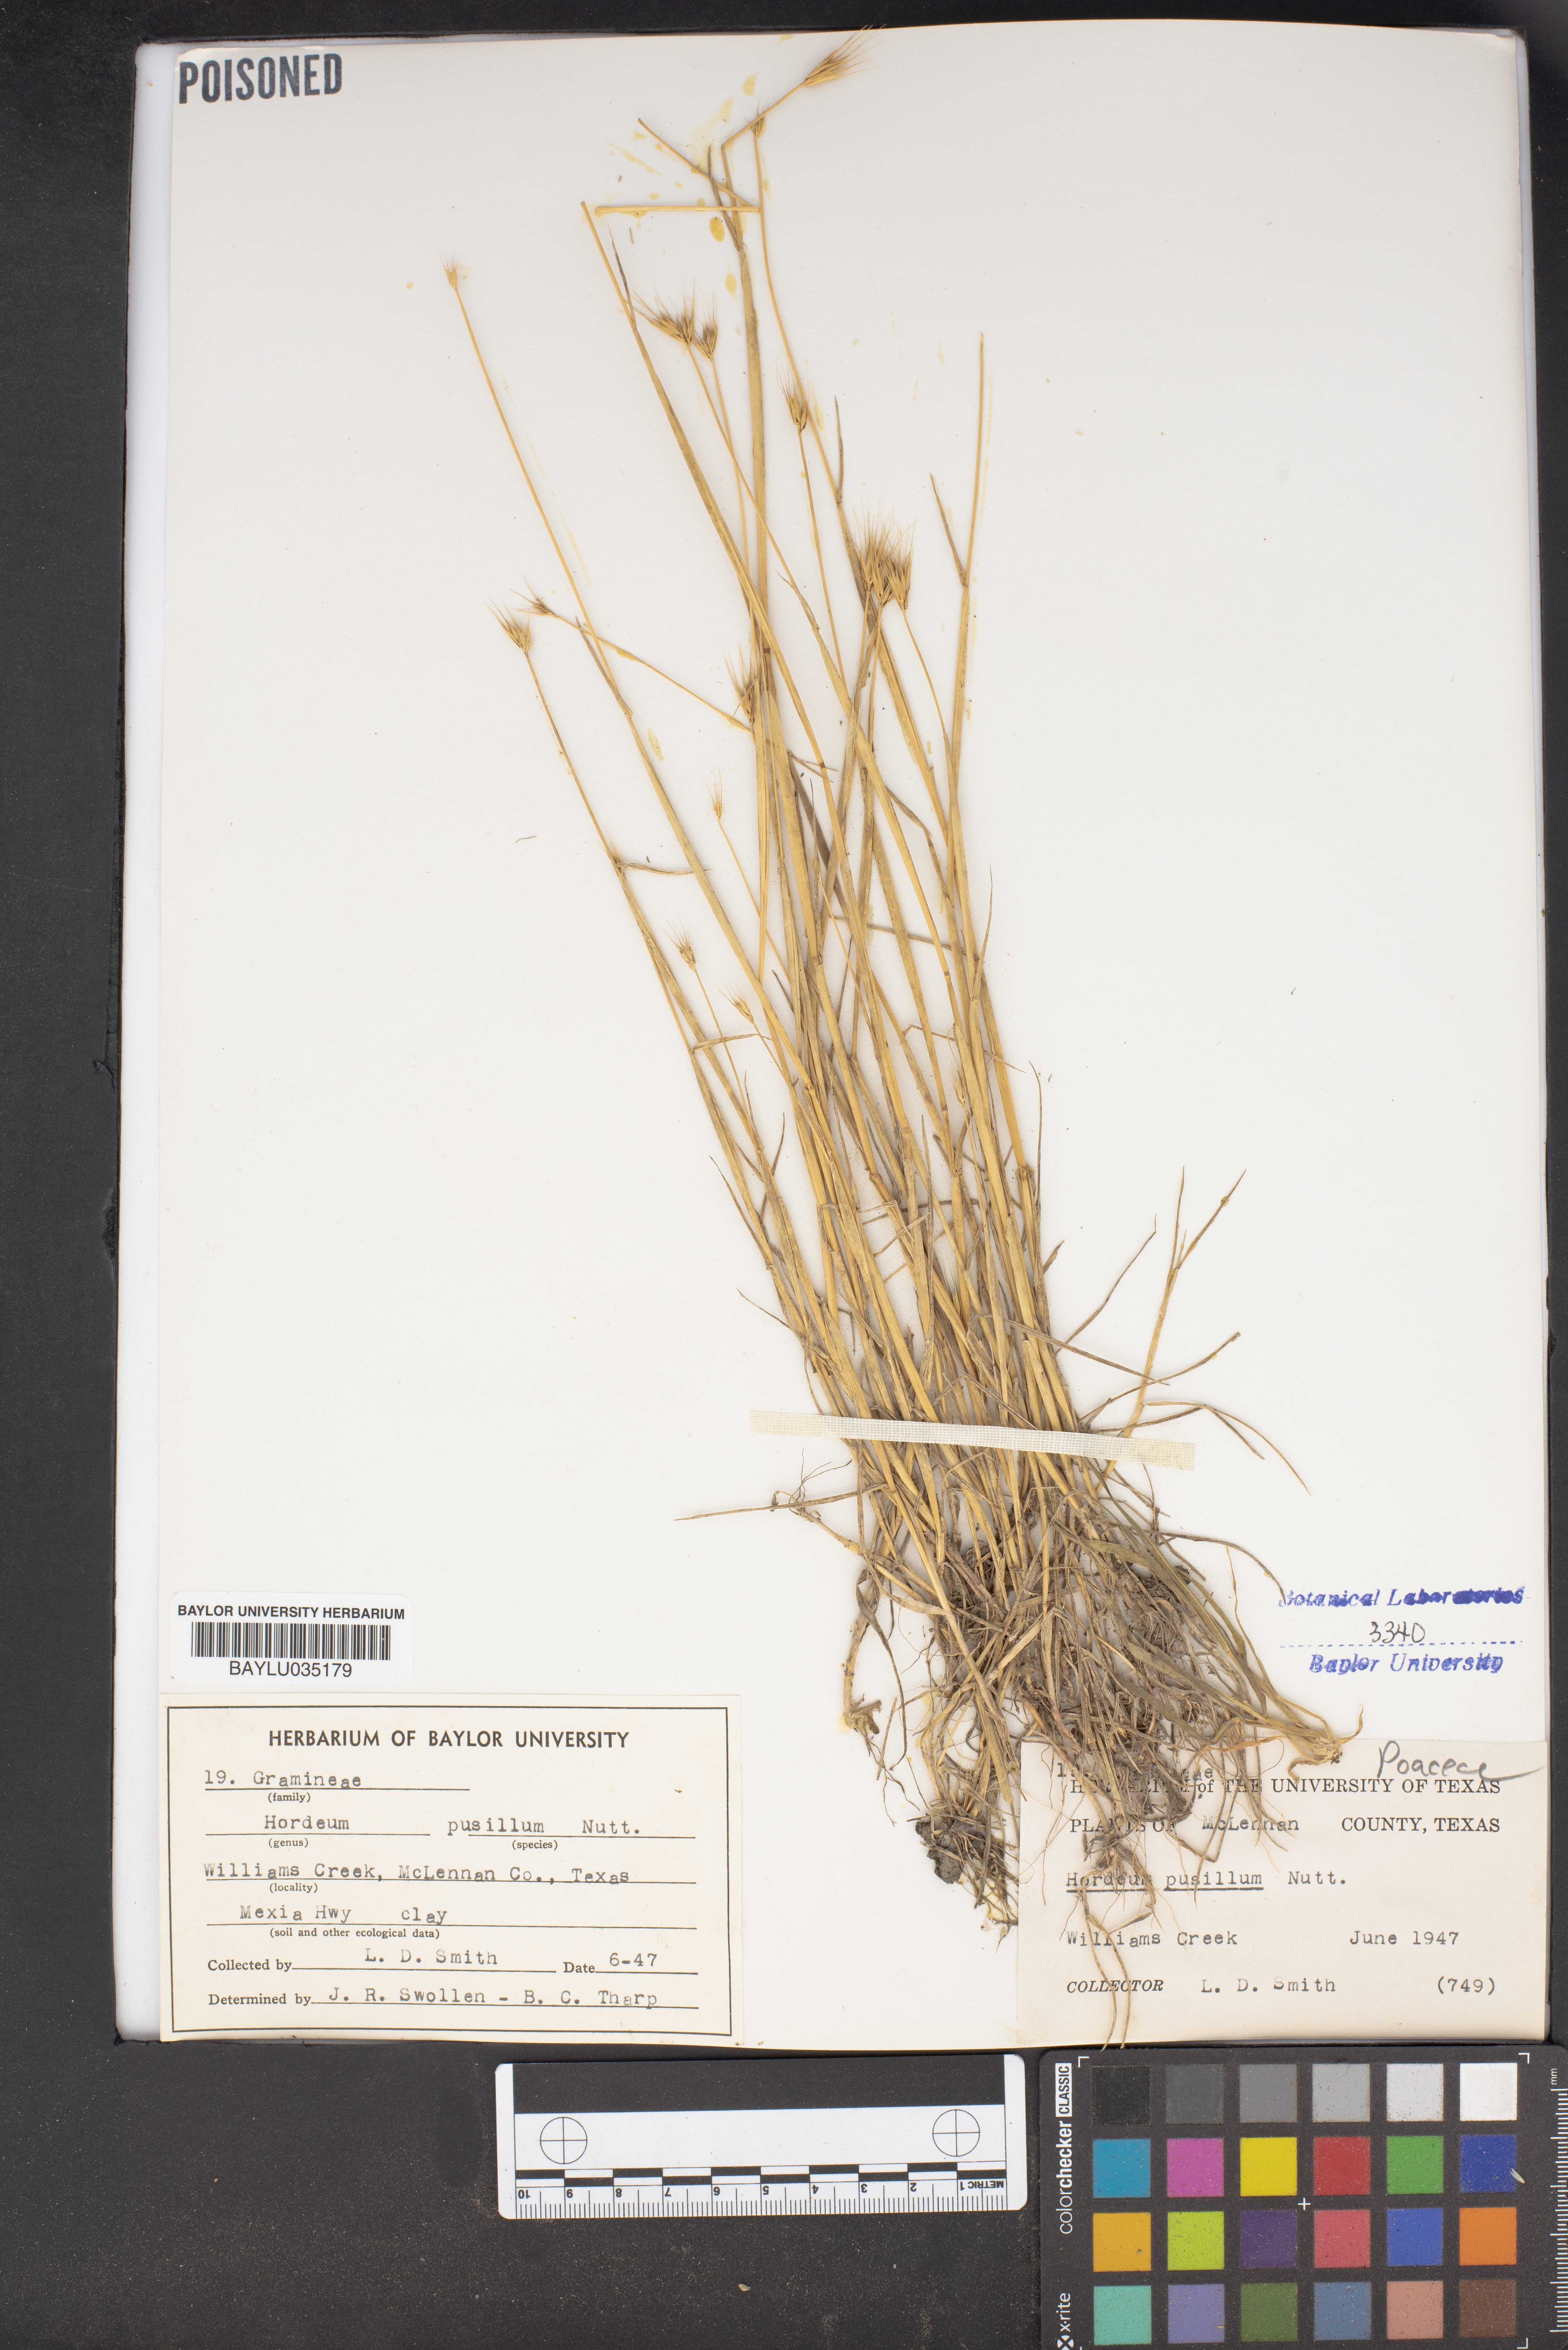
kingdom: Plantae
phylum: Tracheophyta
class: Liliopsida
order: Poales
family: Poaceae
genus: Hordeum
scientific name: Hordeum pusillum
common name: Little barley
